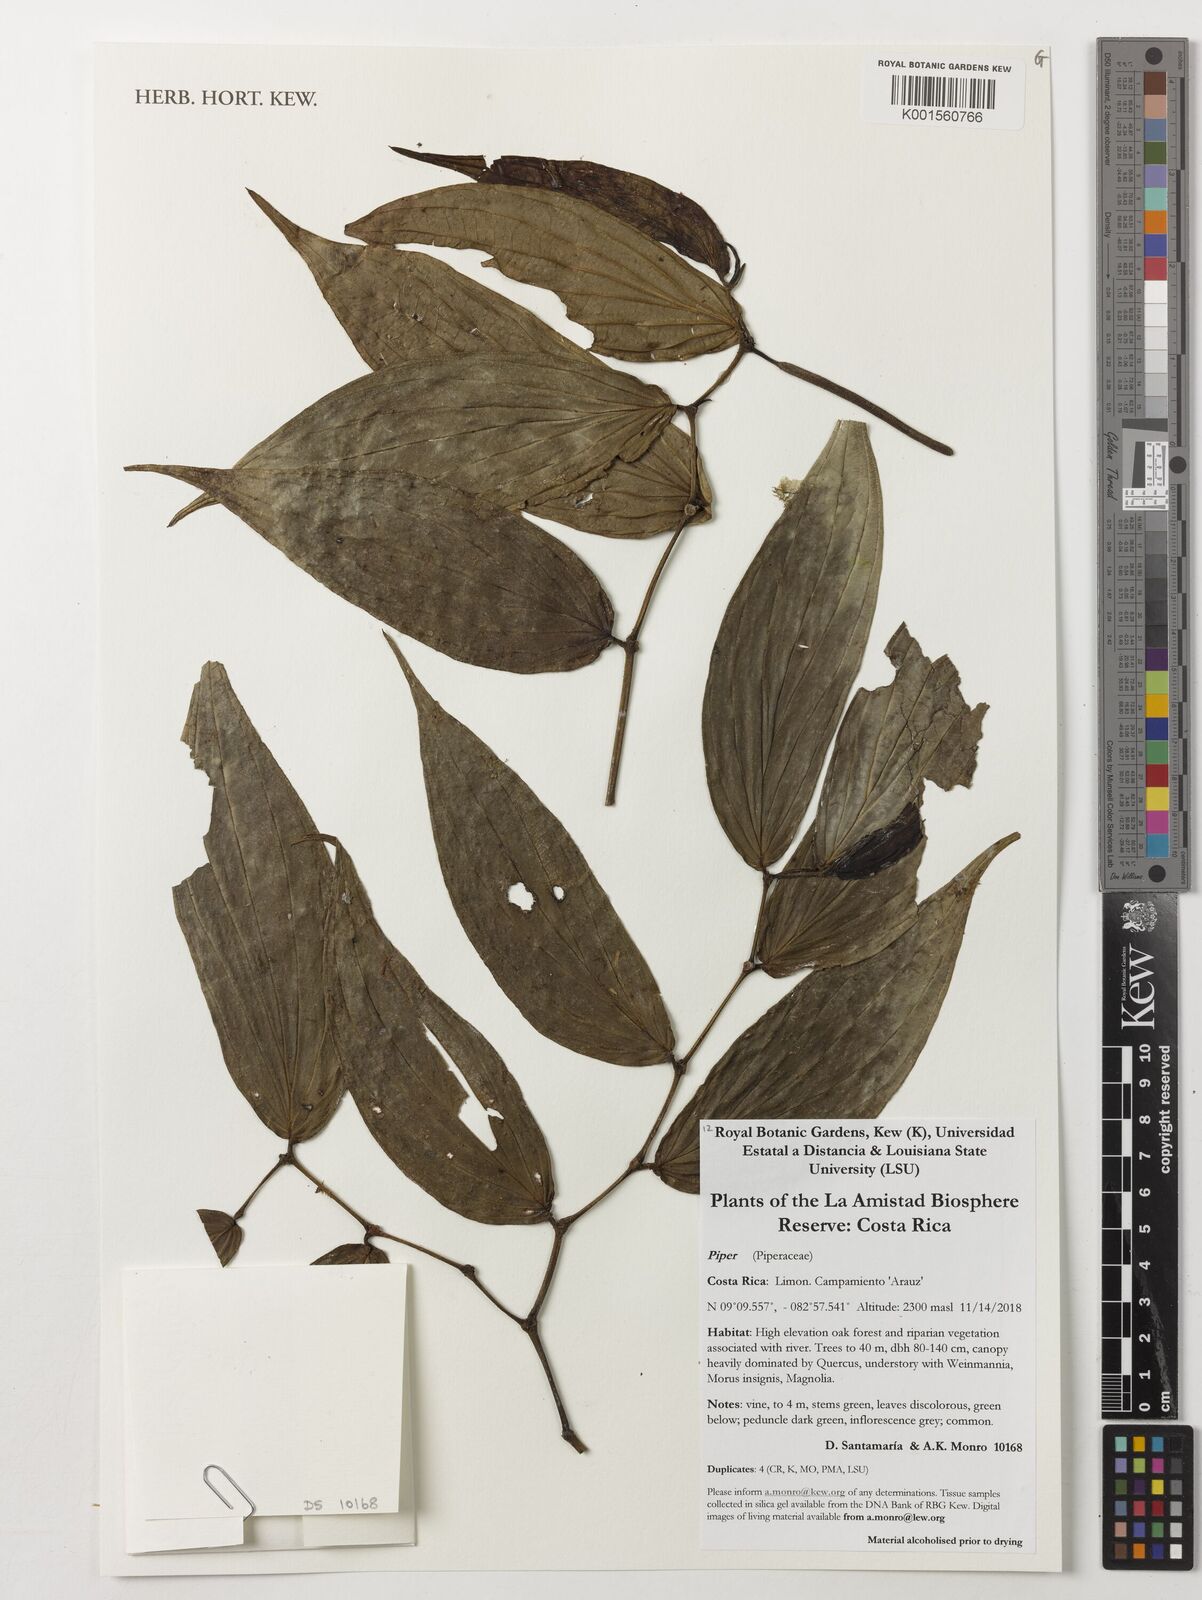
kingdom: Plantae
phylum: Tracheophyta
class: Magnoliopsida
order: Piperales
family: Piperaceae
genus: Piper
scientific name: Piper
